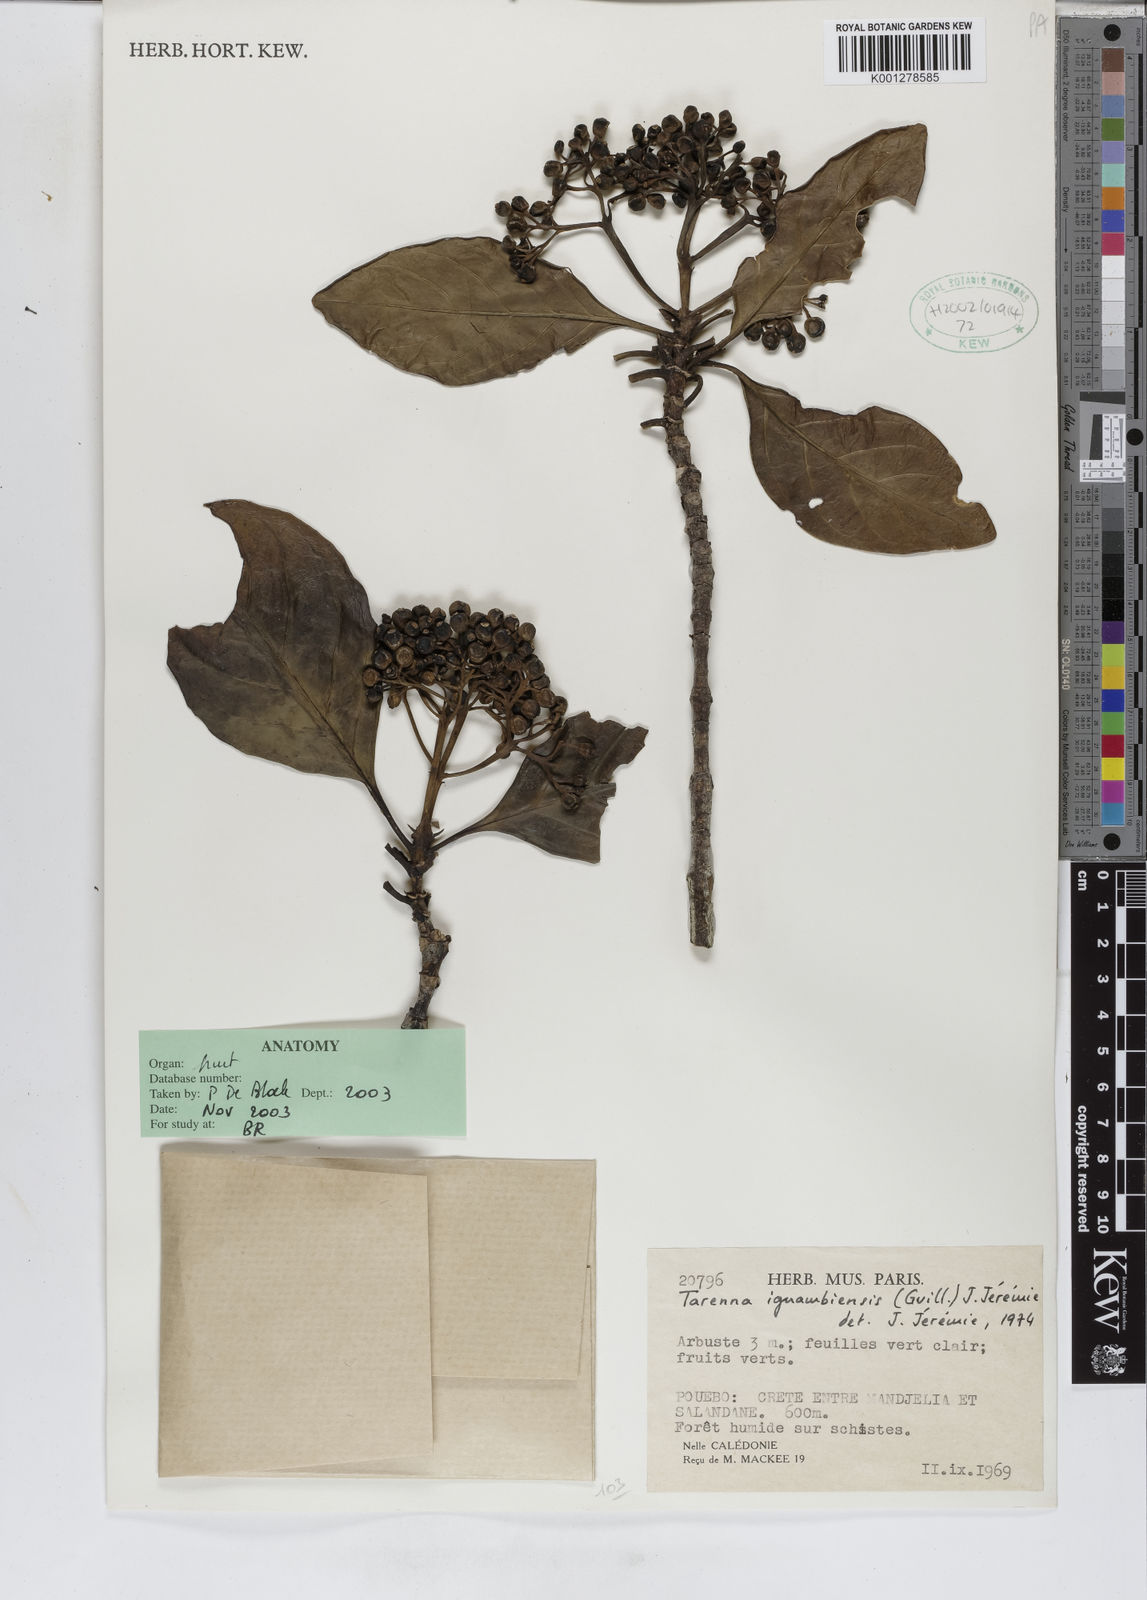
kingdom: Plantae
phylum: Tracheophyta
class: Magnoliopsida
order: Gentianales
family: Rubiaceae
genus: Tarenna
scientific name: Tarenna
